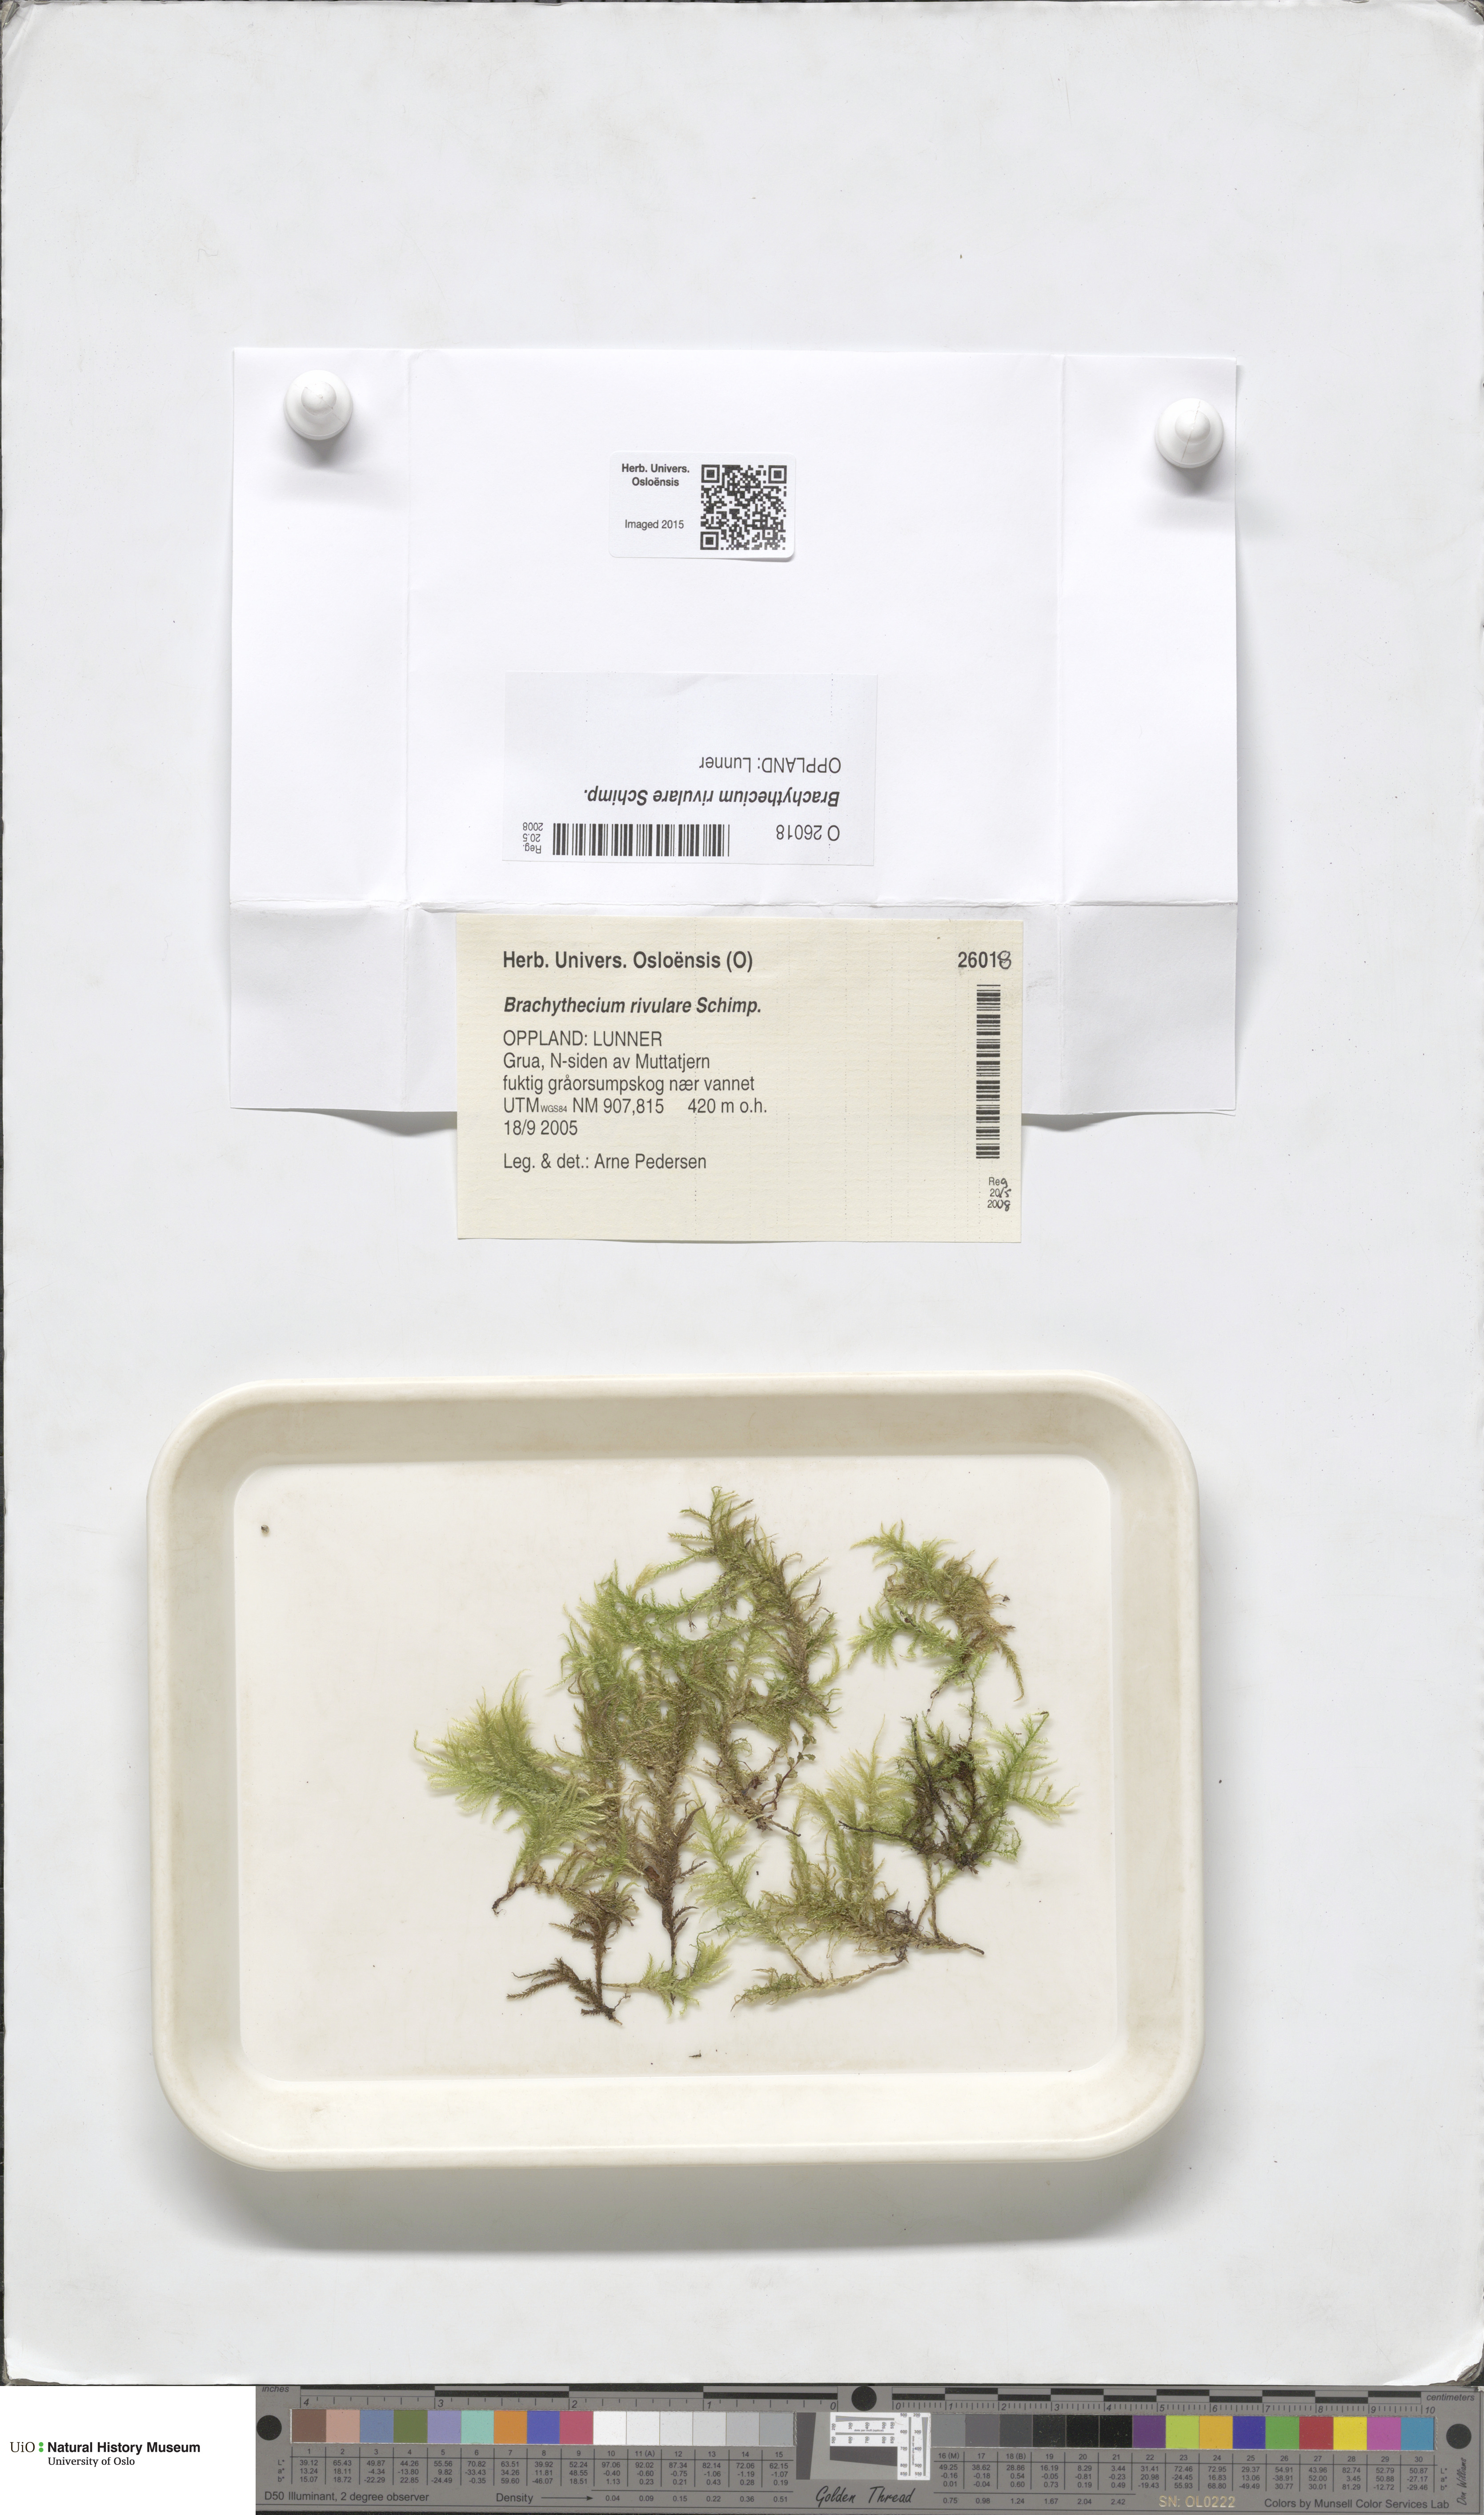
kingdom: Plantae
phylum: Bryophyta
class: Bryopsida
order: Hypnales
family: Brachytheciaceae
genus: Brachythecium
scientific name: Brachythecium rivulare
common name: River ragged moss
